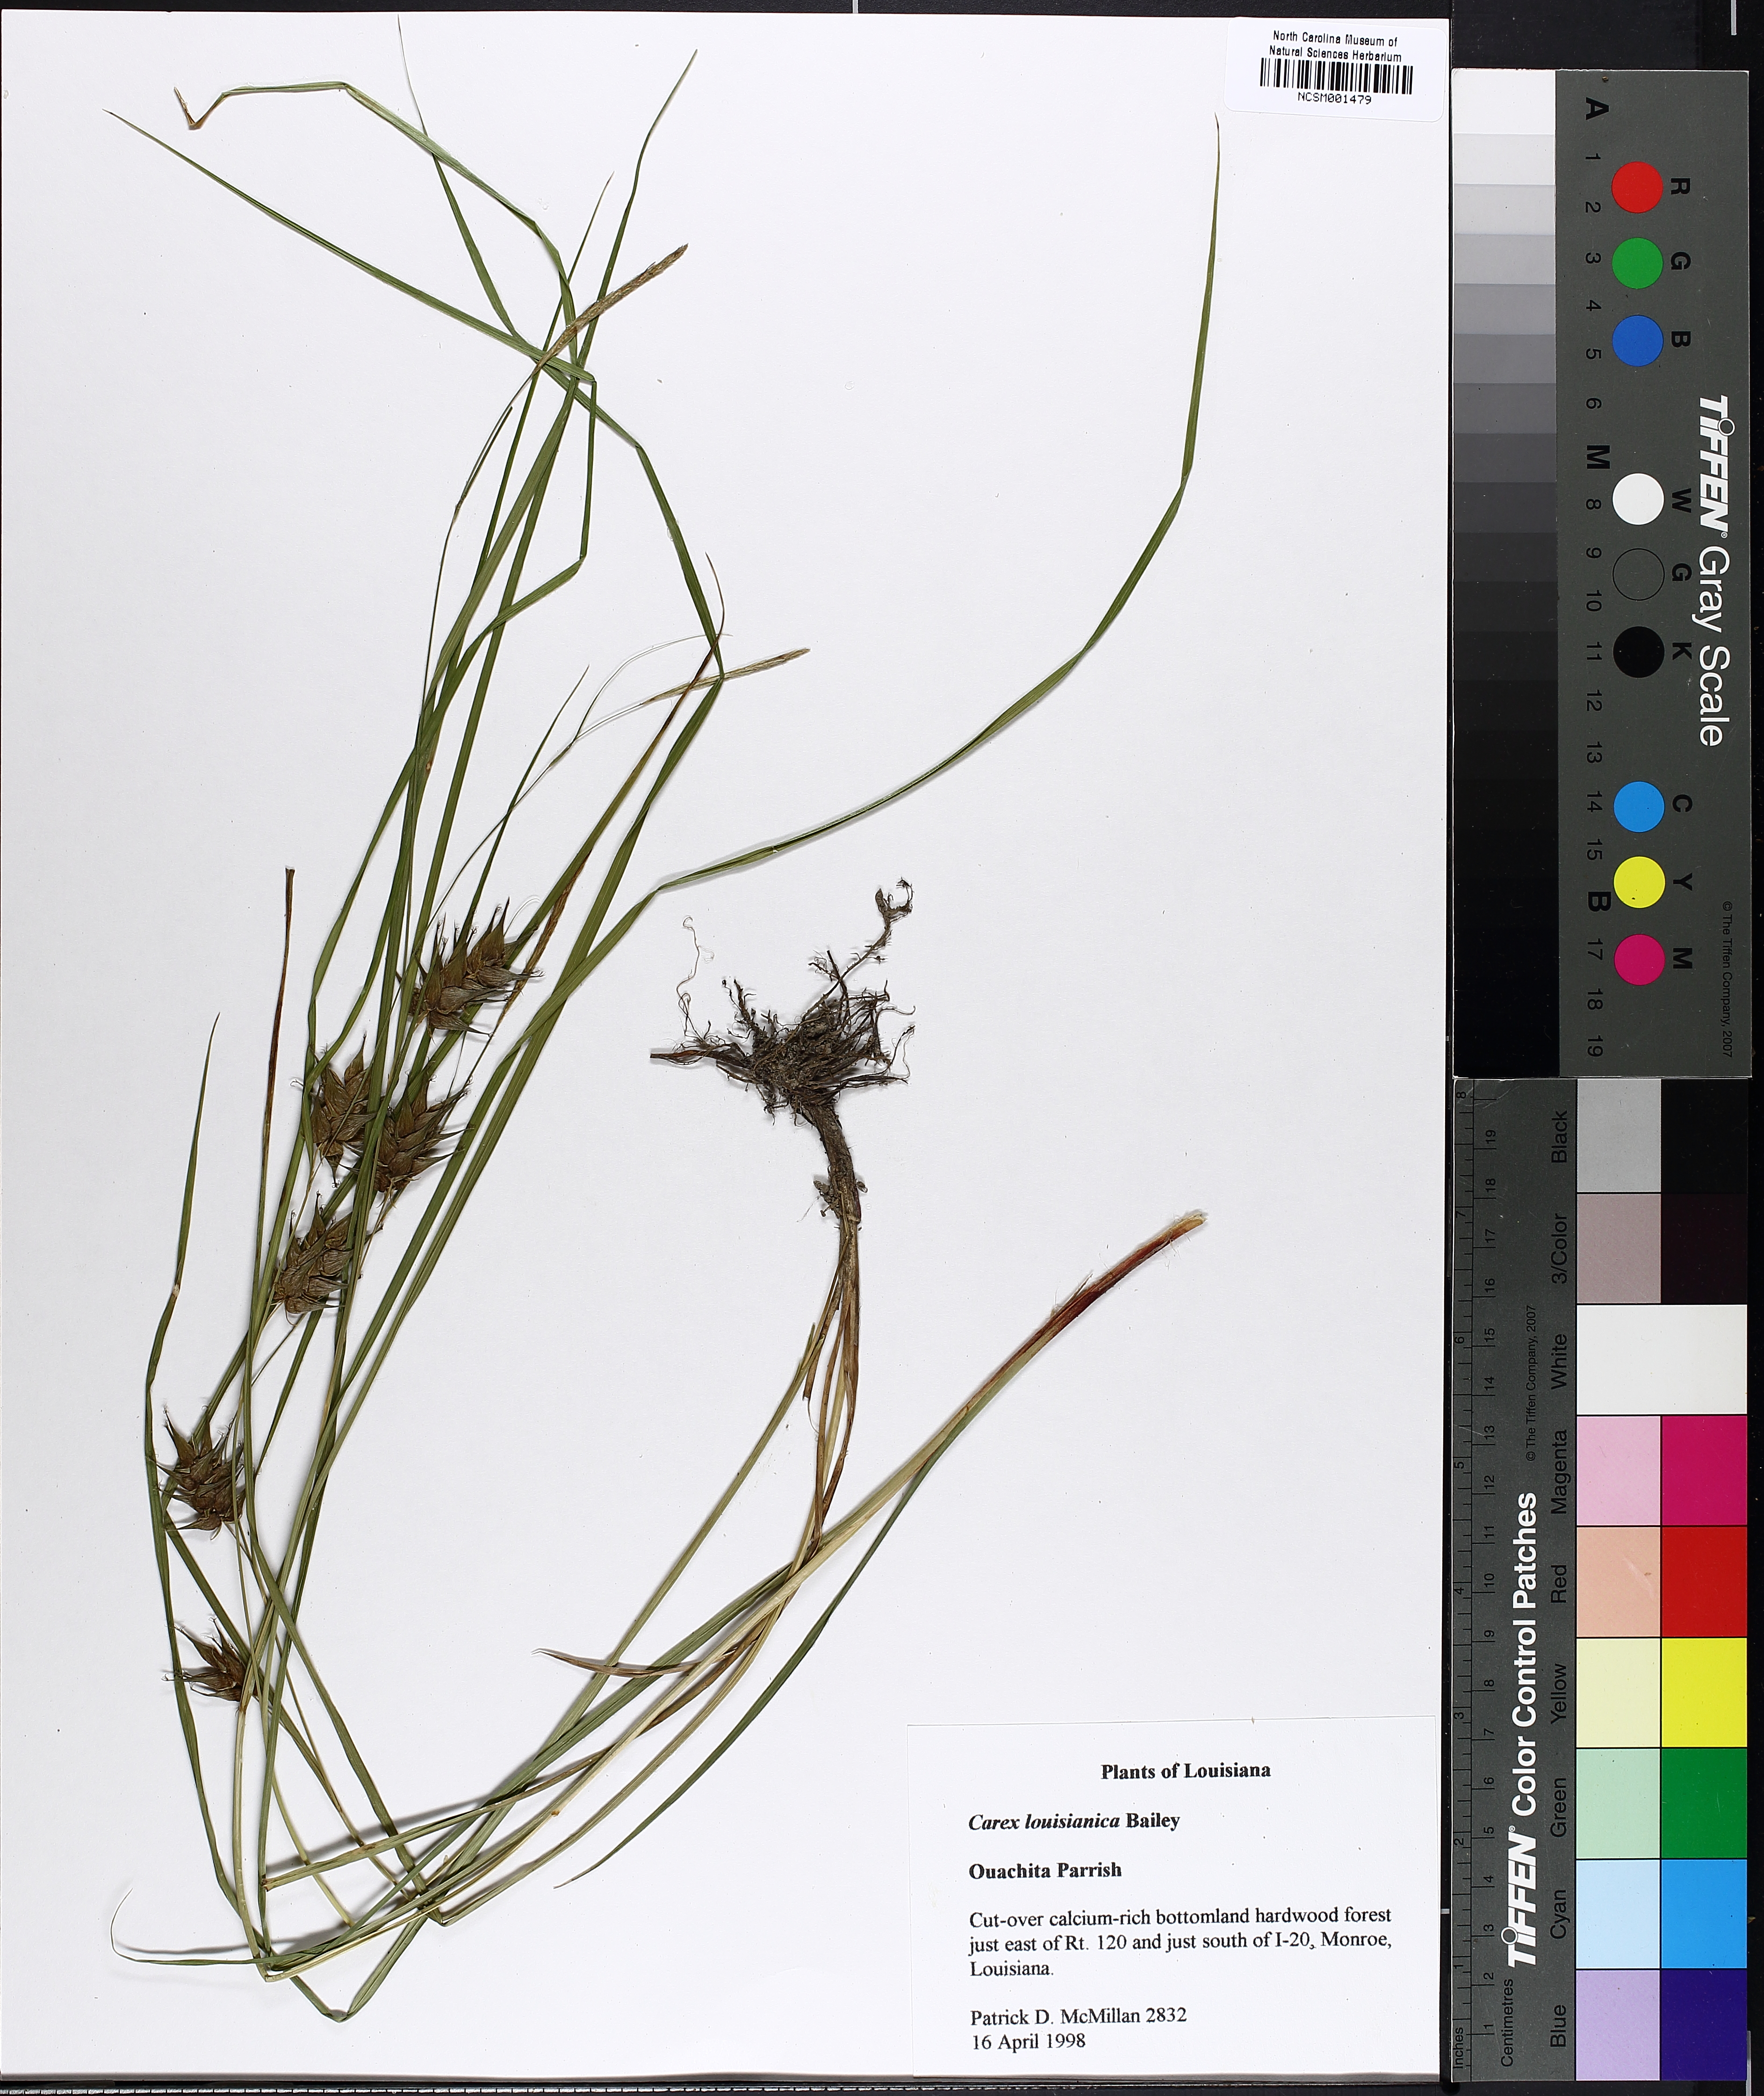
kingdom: Plantae
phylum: Tracheophyta
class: Liliopsida
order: Poales
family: Cyperaceae
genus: Carex
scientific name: Carex louisianica
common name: Louisiana sedge
